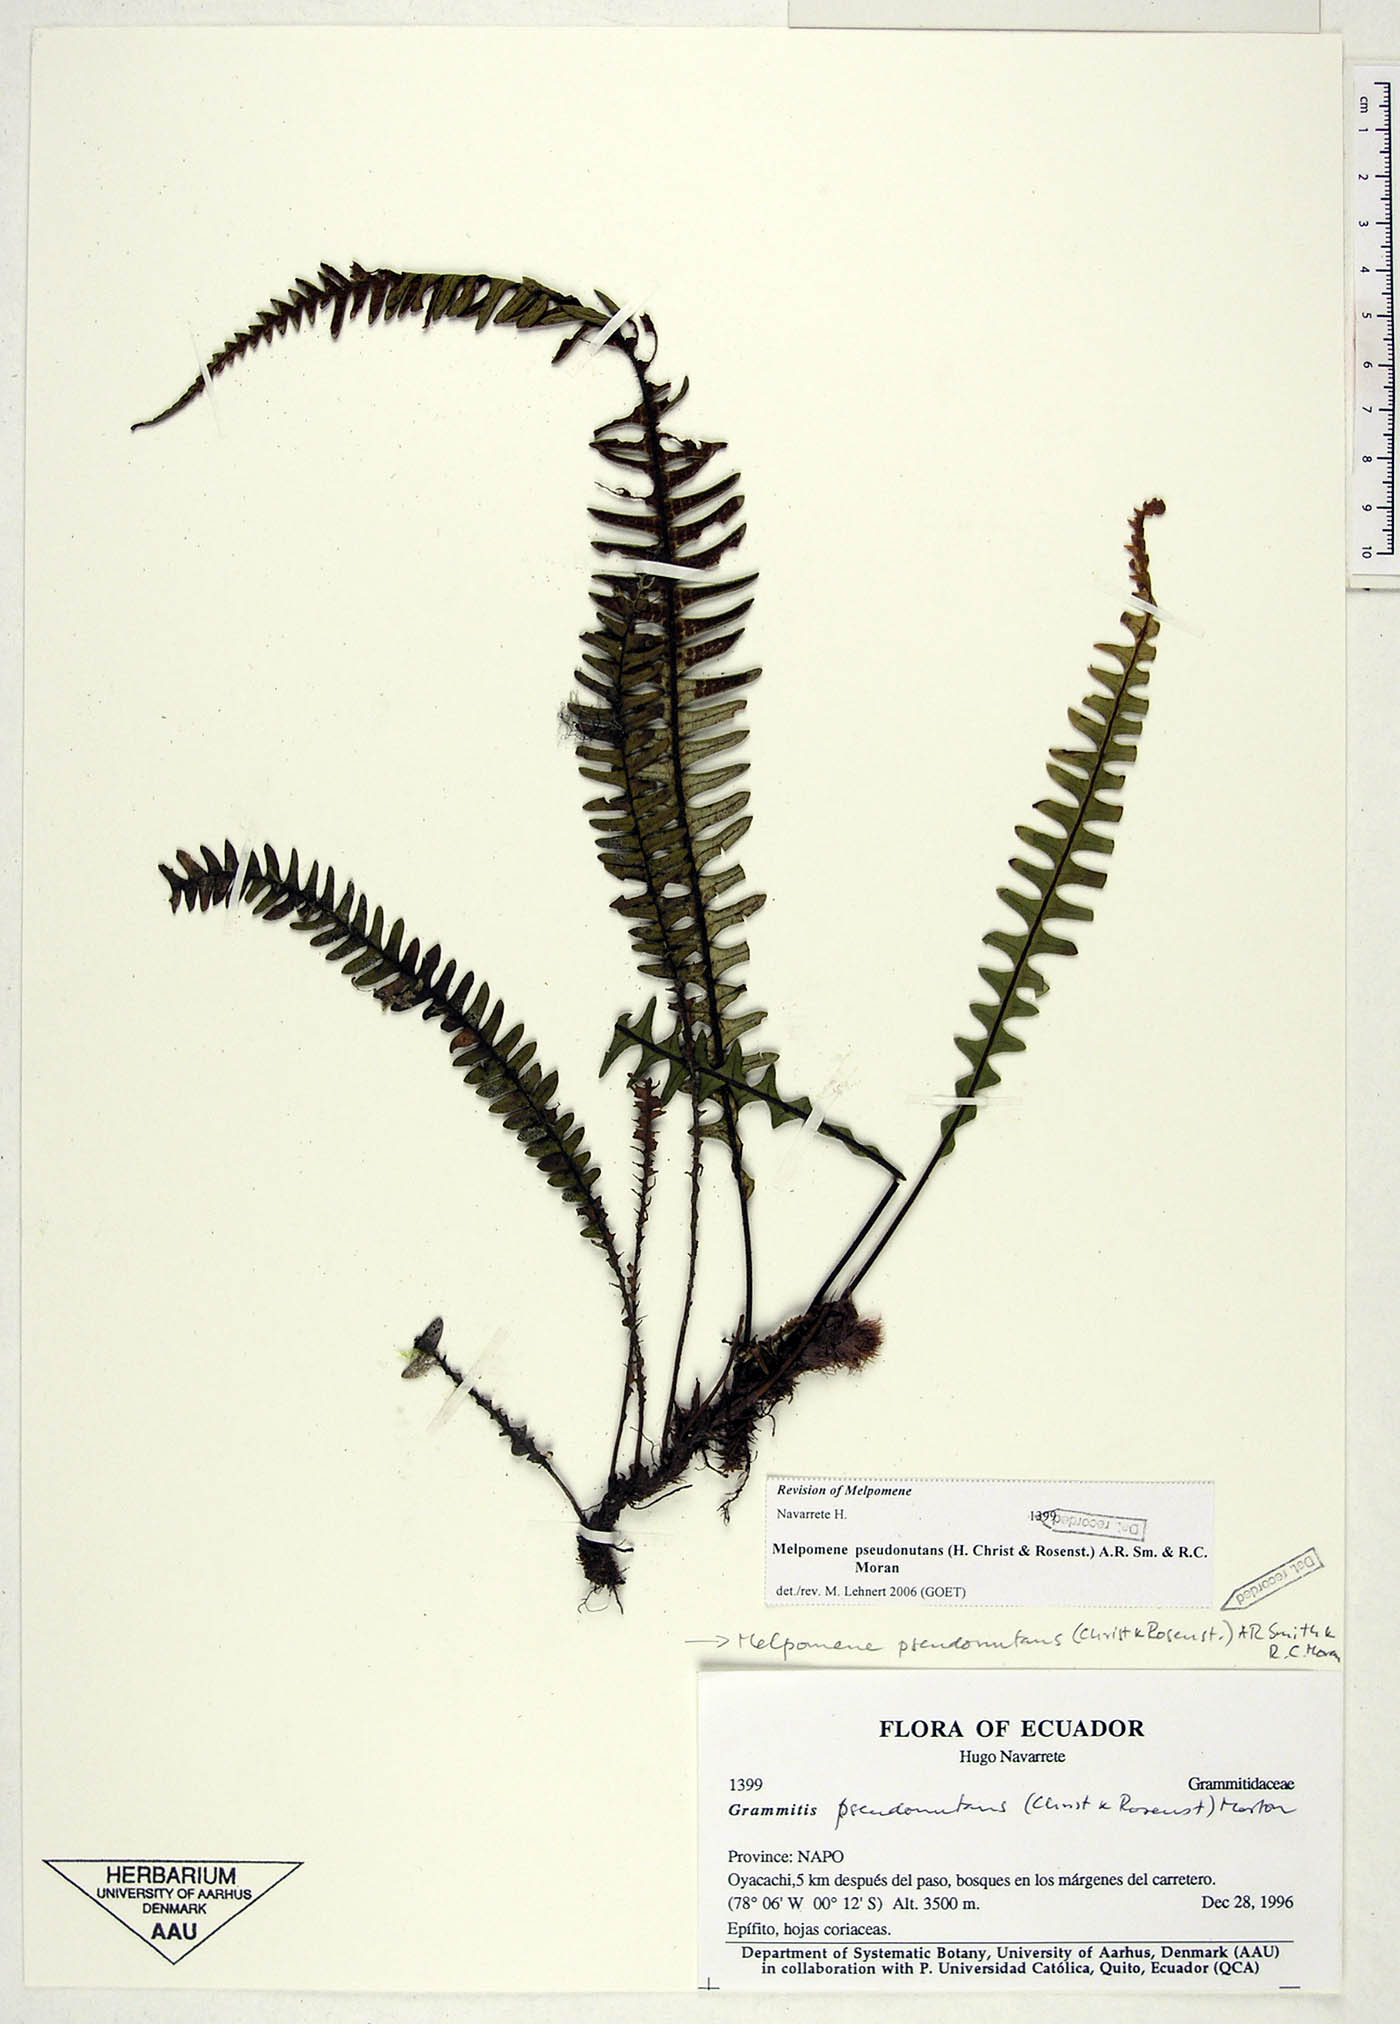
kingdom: Plantae
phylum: Tracheophyta
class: Polypodiopsida
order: Polypodiales
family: Polypodiaceae
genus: Melpomene
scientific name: Melpomene pseudonutans
